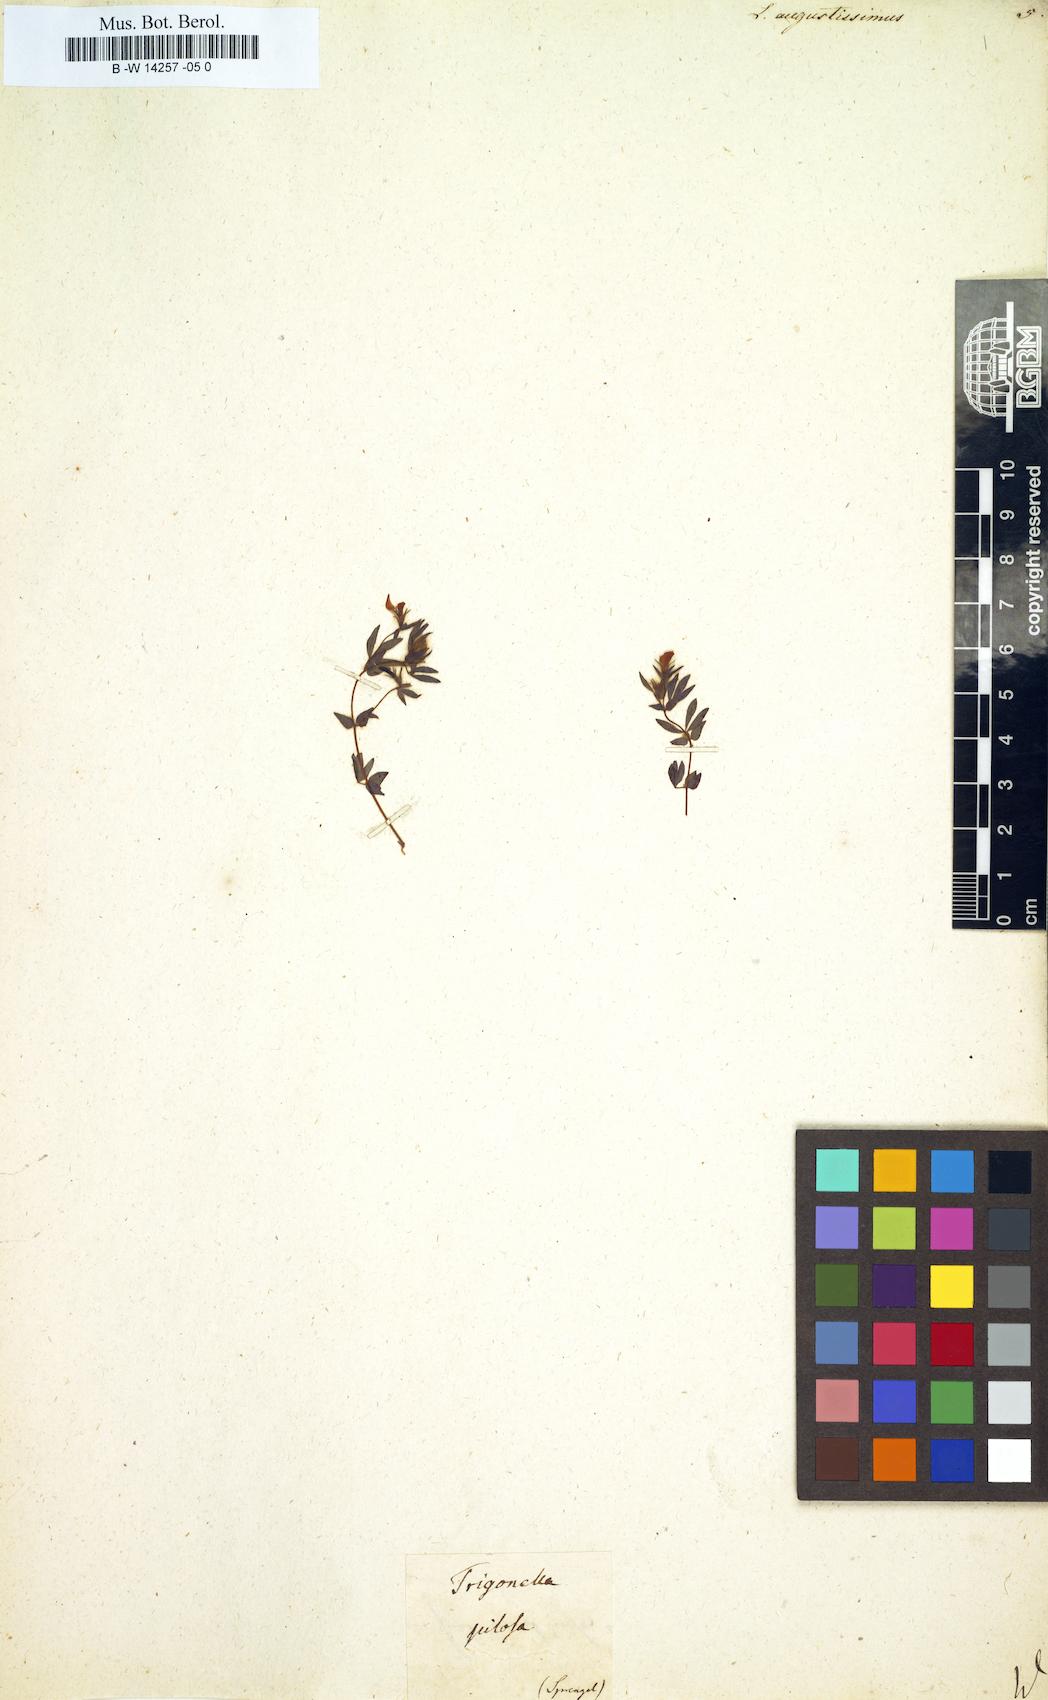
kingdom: Plantae
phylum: Tracheophyta
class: Magnoliopsida
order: Fabales
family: Fabaceae
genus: Lotus
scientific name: Lotus angustissimus
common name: Slender bird's-foot trefoil
